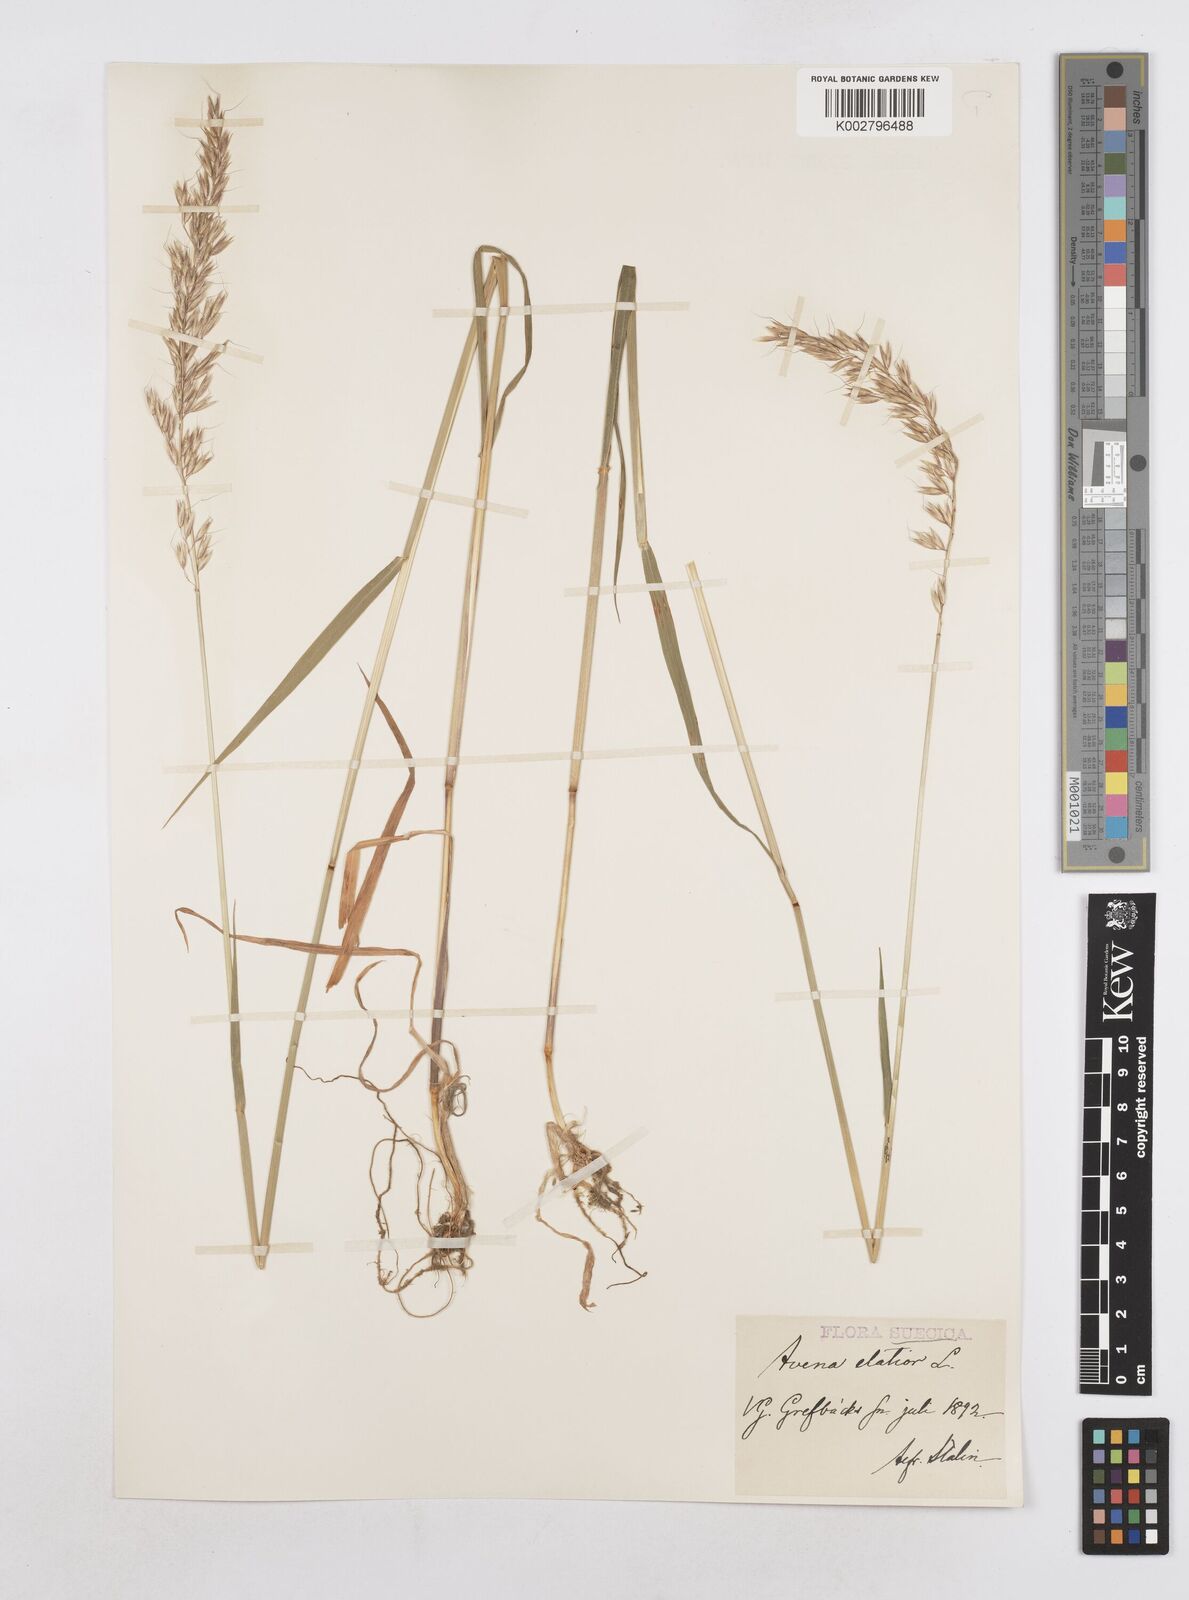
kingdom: Plantae
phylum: Tracheophyta
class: Liliopsida
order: Poales
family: Poaceae
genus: Arrhenatherum
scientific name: Arrhenatherum elatius
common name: Tall oatgrass
